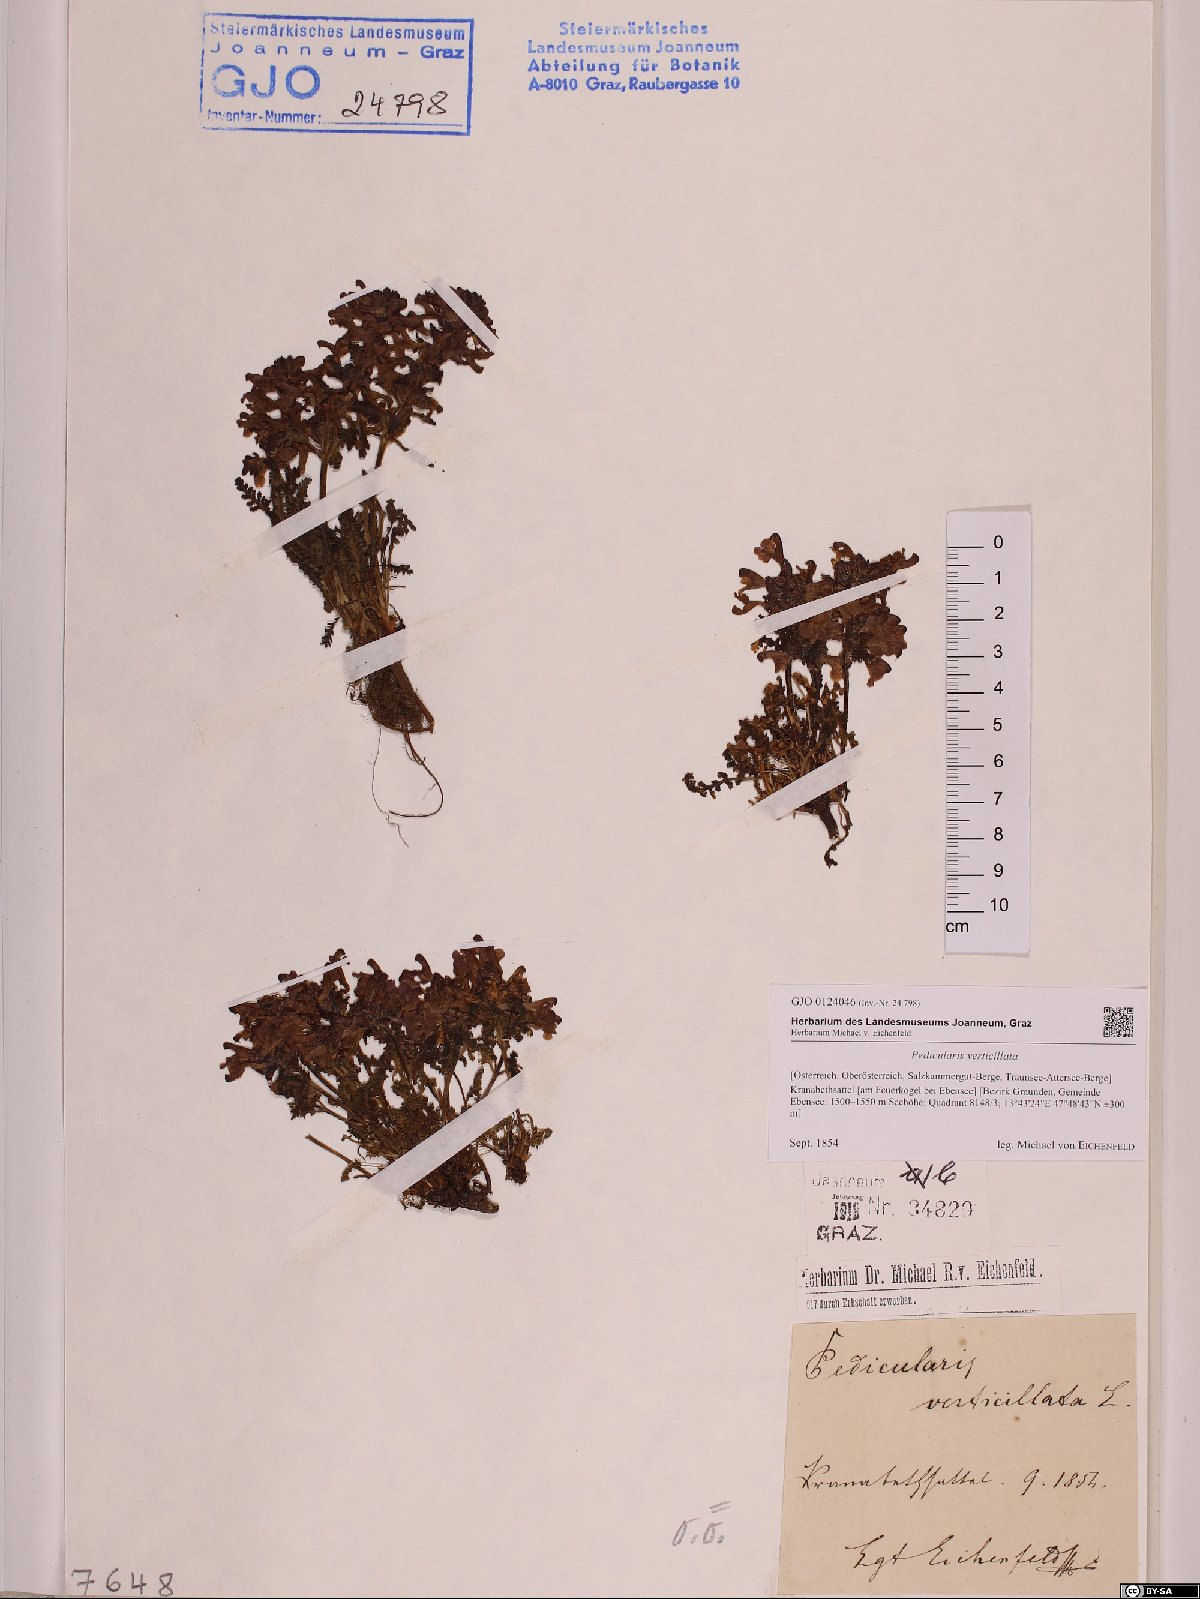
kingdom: Plantae
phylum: Tracheophyta
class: Magnoliopsida
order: Lamiales
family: Orobanchaceae
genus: Pedicularis
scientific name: Pedicularis verticillata
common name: Whorled lousewort
